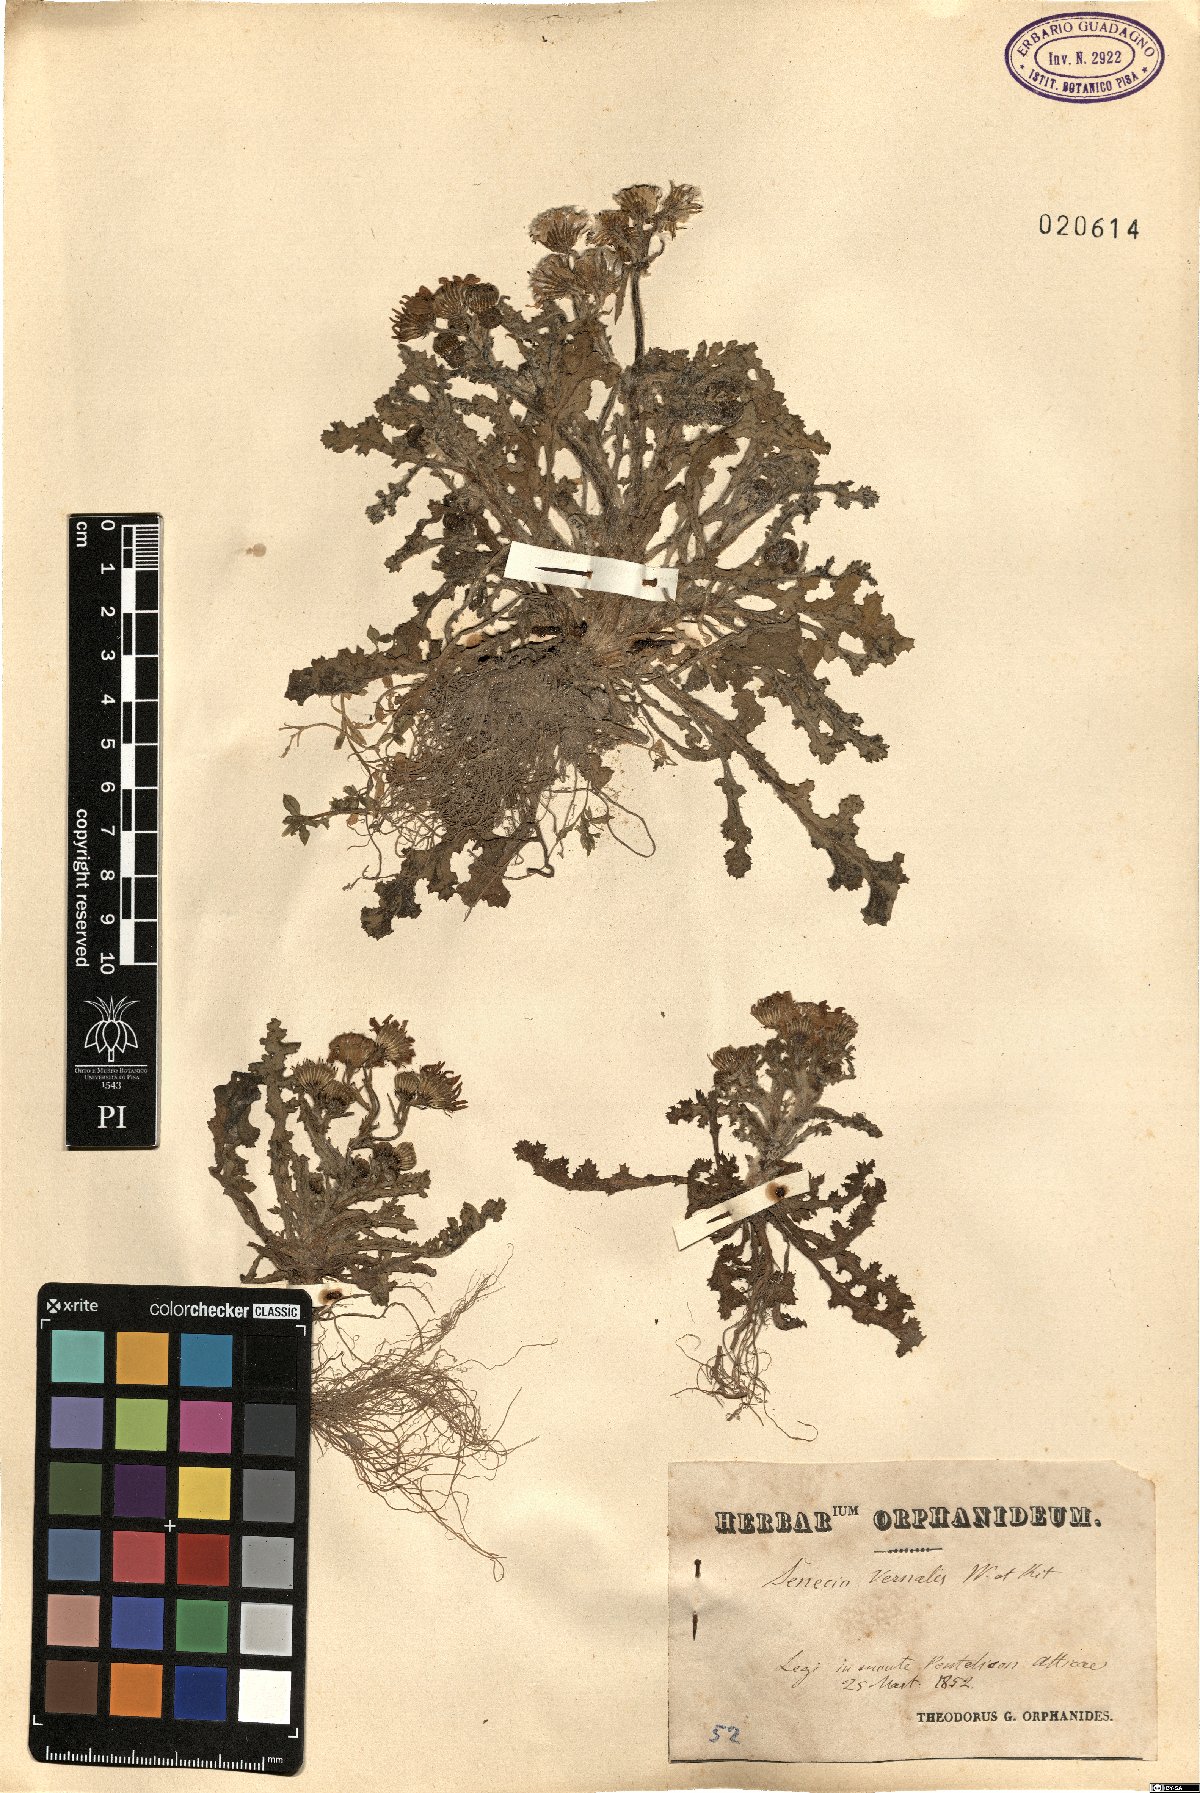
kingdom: Plantae
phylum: Tracheophyta
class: Magnoliopsida
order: Asterales
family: Asteraceae
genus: Senecio
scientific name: Senecio vernalis
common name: Eastern groundsel
